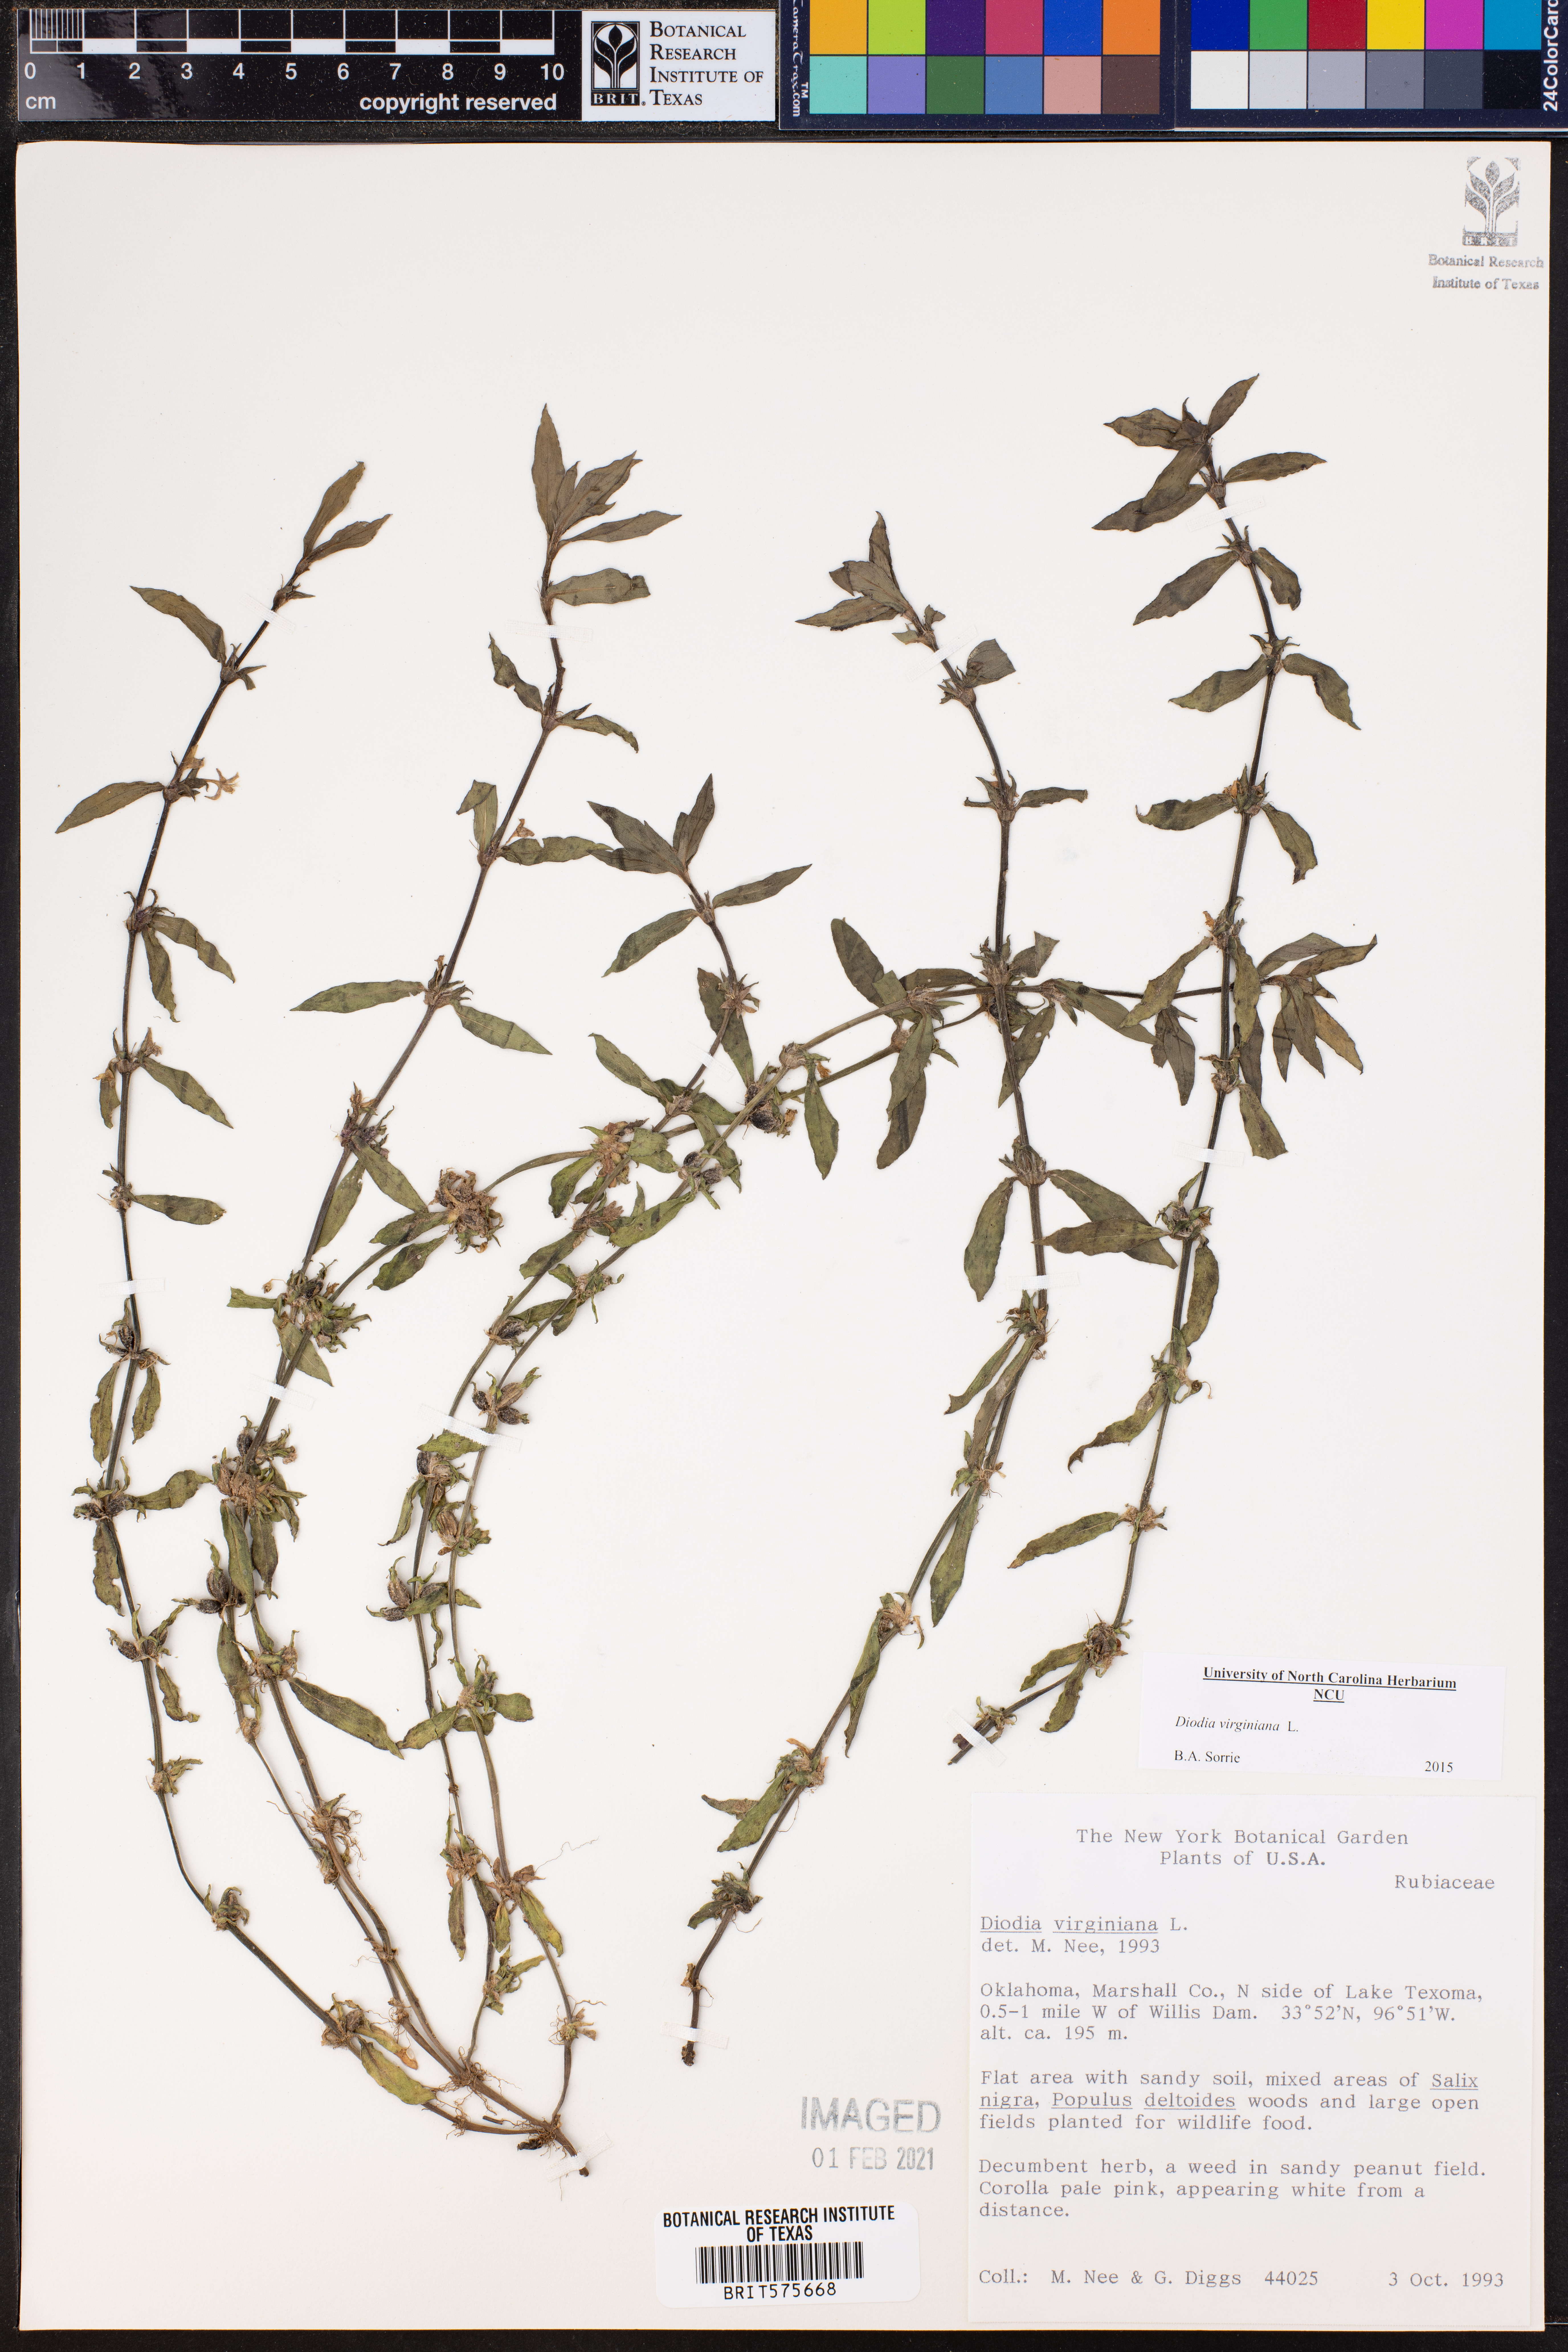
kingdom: Plantae
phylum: Tracheophyta
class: Magnoliopsida
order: Gentianales
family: Rubiaceae
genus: Diodia
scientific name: Diodia virginiana
